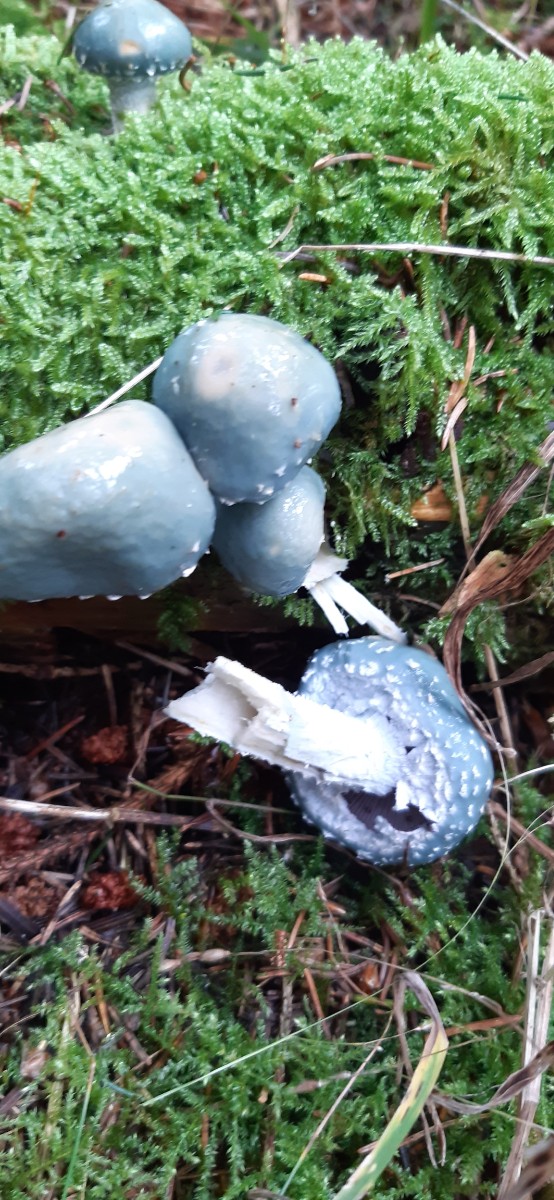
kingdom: Fungi
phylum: Basidiomycota
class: Agaricomycetes
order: Agaricales
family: Strophariaceae
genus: Stropharia
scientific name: Stropharia
